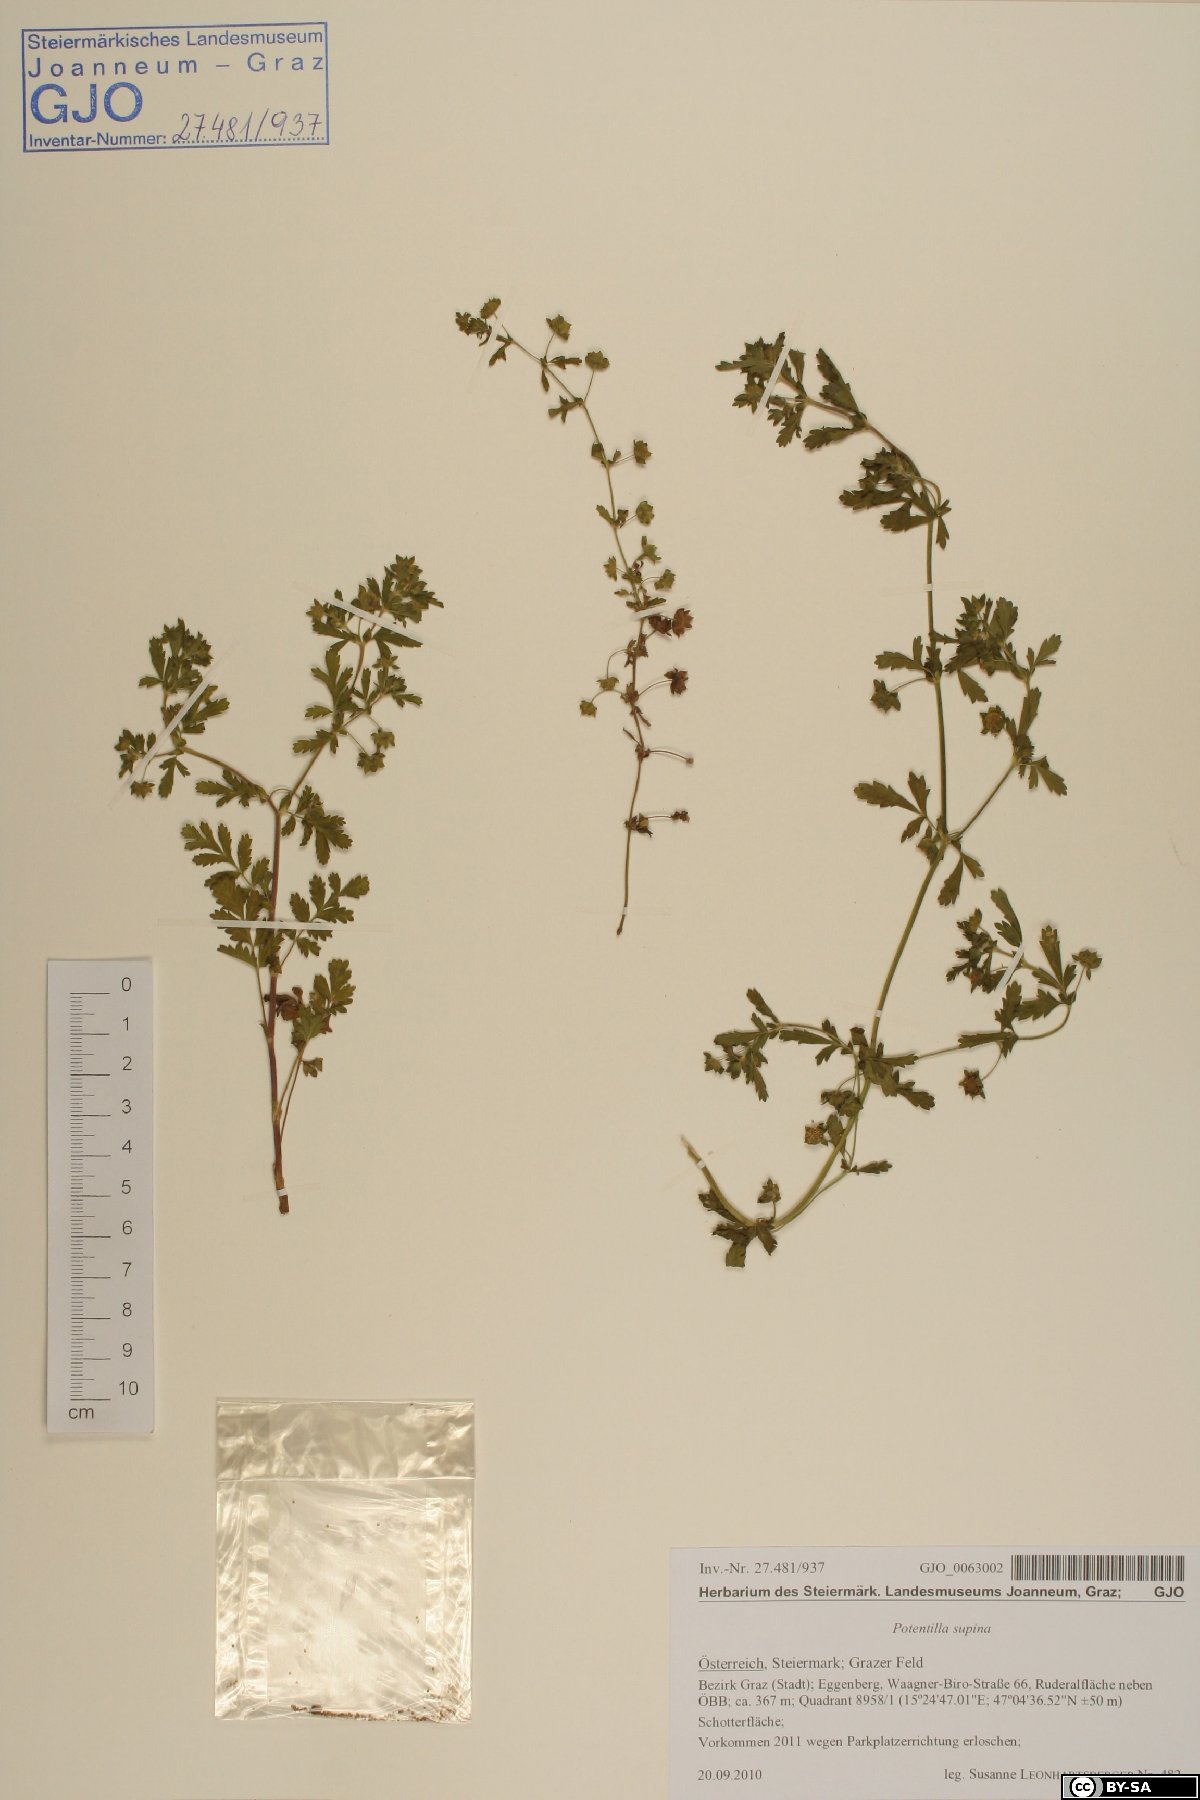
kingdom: Plantae
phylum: Tracheophyta
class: Magnoliopsida
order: Rosales
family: Rosaceae
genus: Potentilla
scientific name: Potentilla supina
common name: Prostrate cinquefoil
